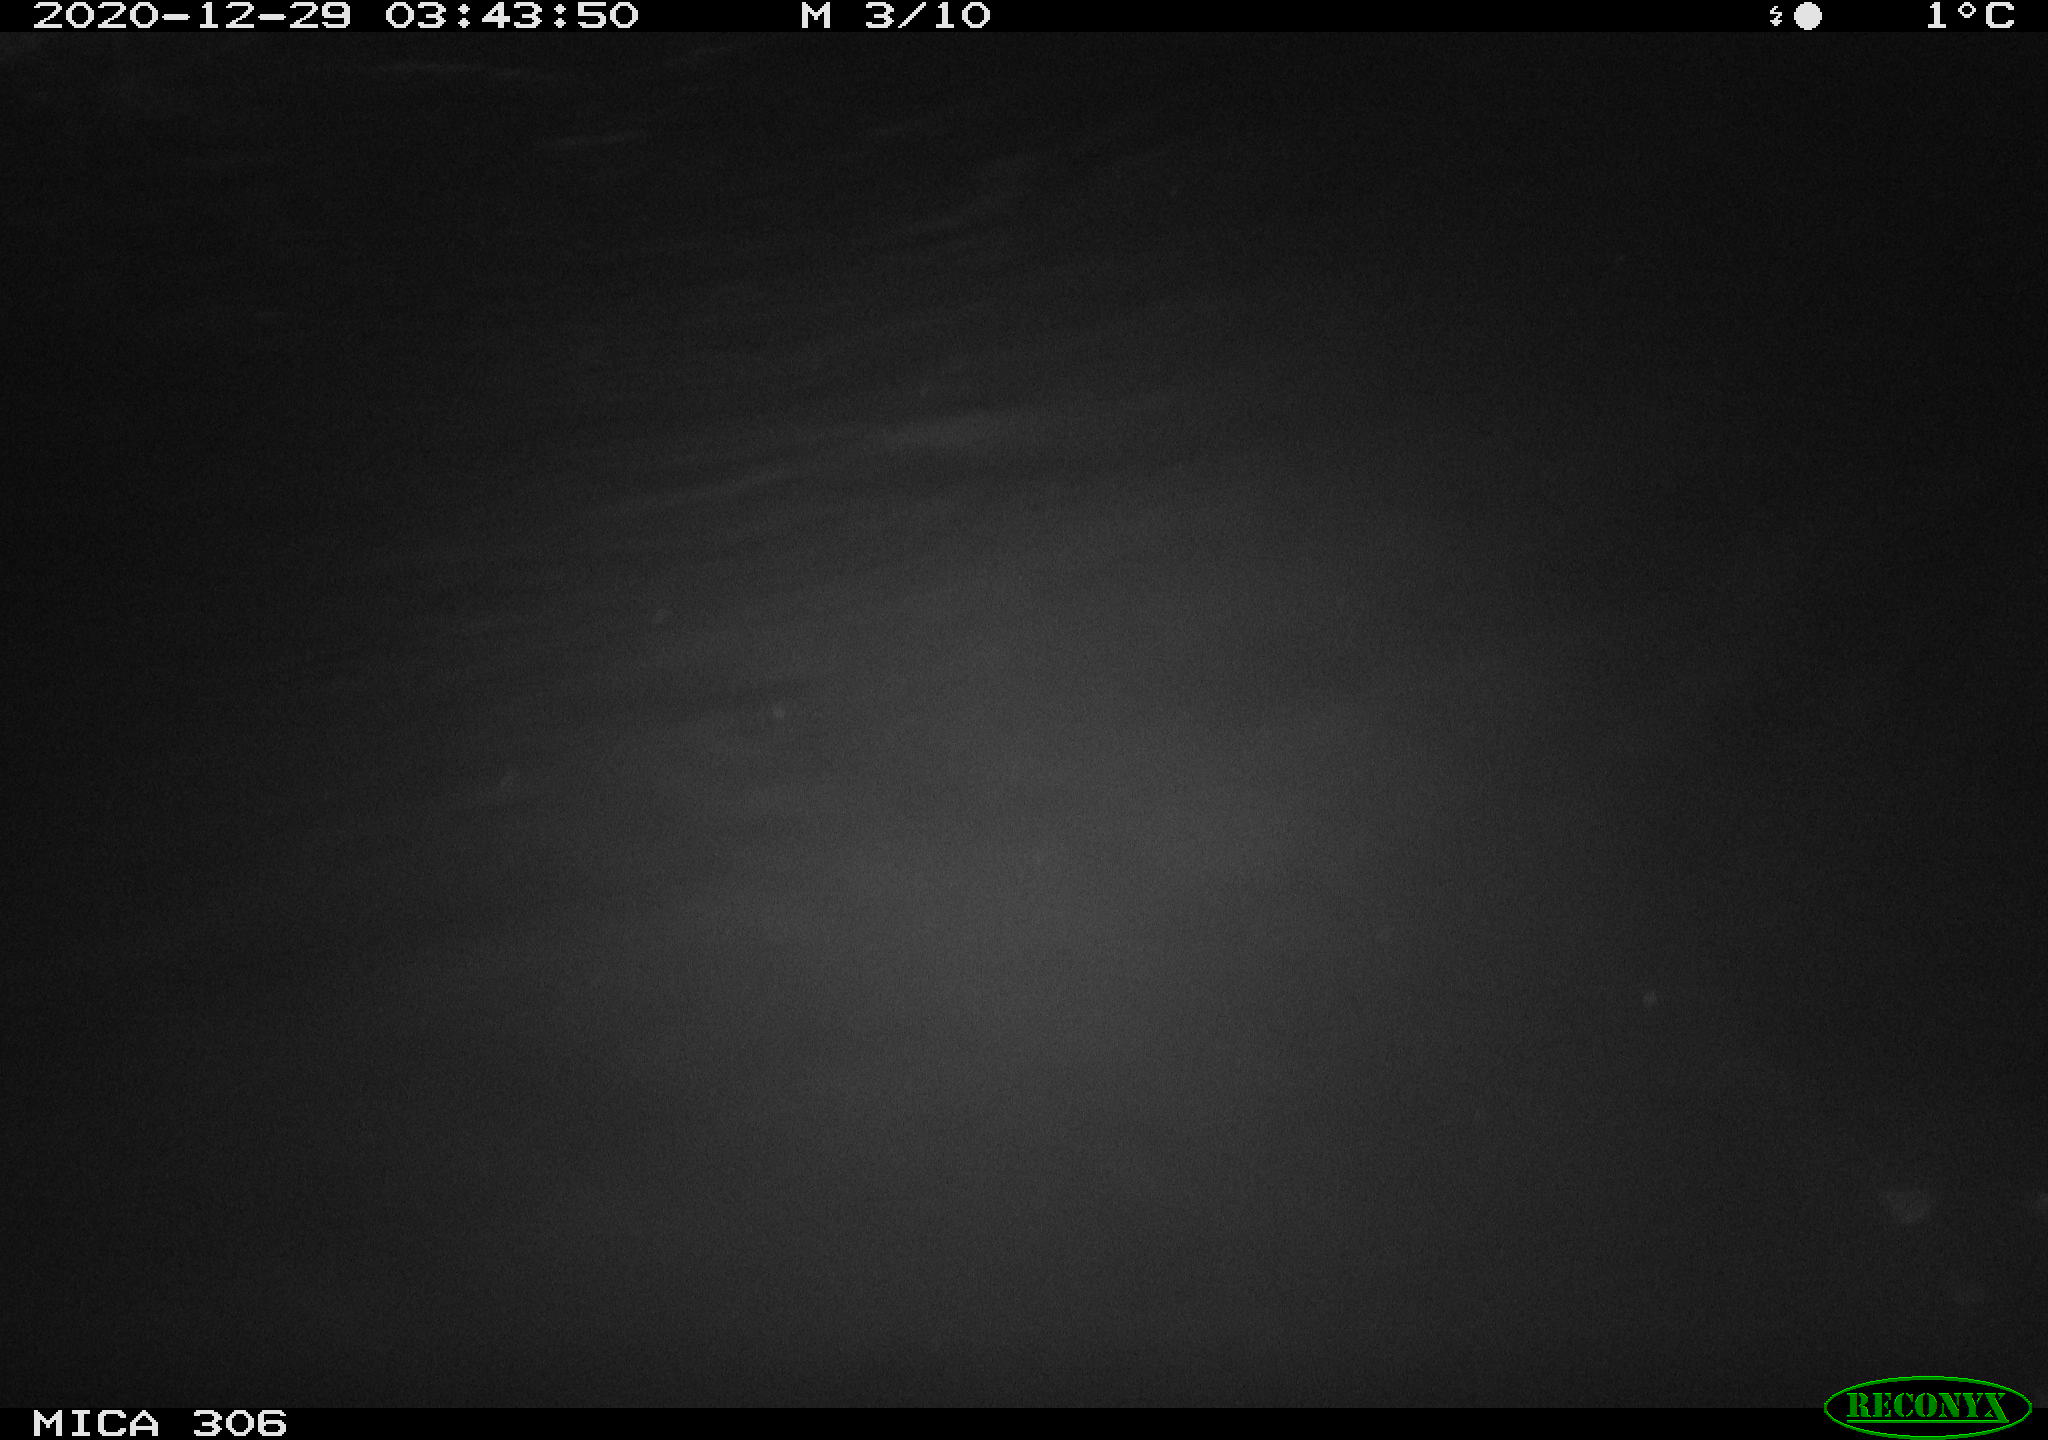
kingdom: Animalia
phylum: Chordata
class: Mammalia
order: Rodentia
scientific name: Rodentia
